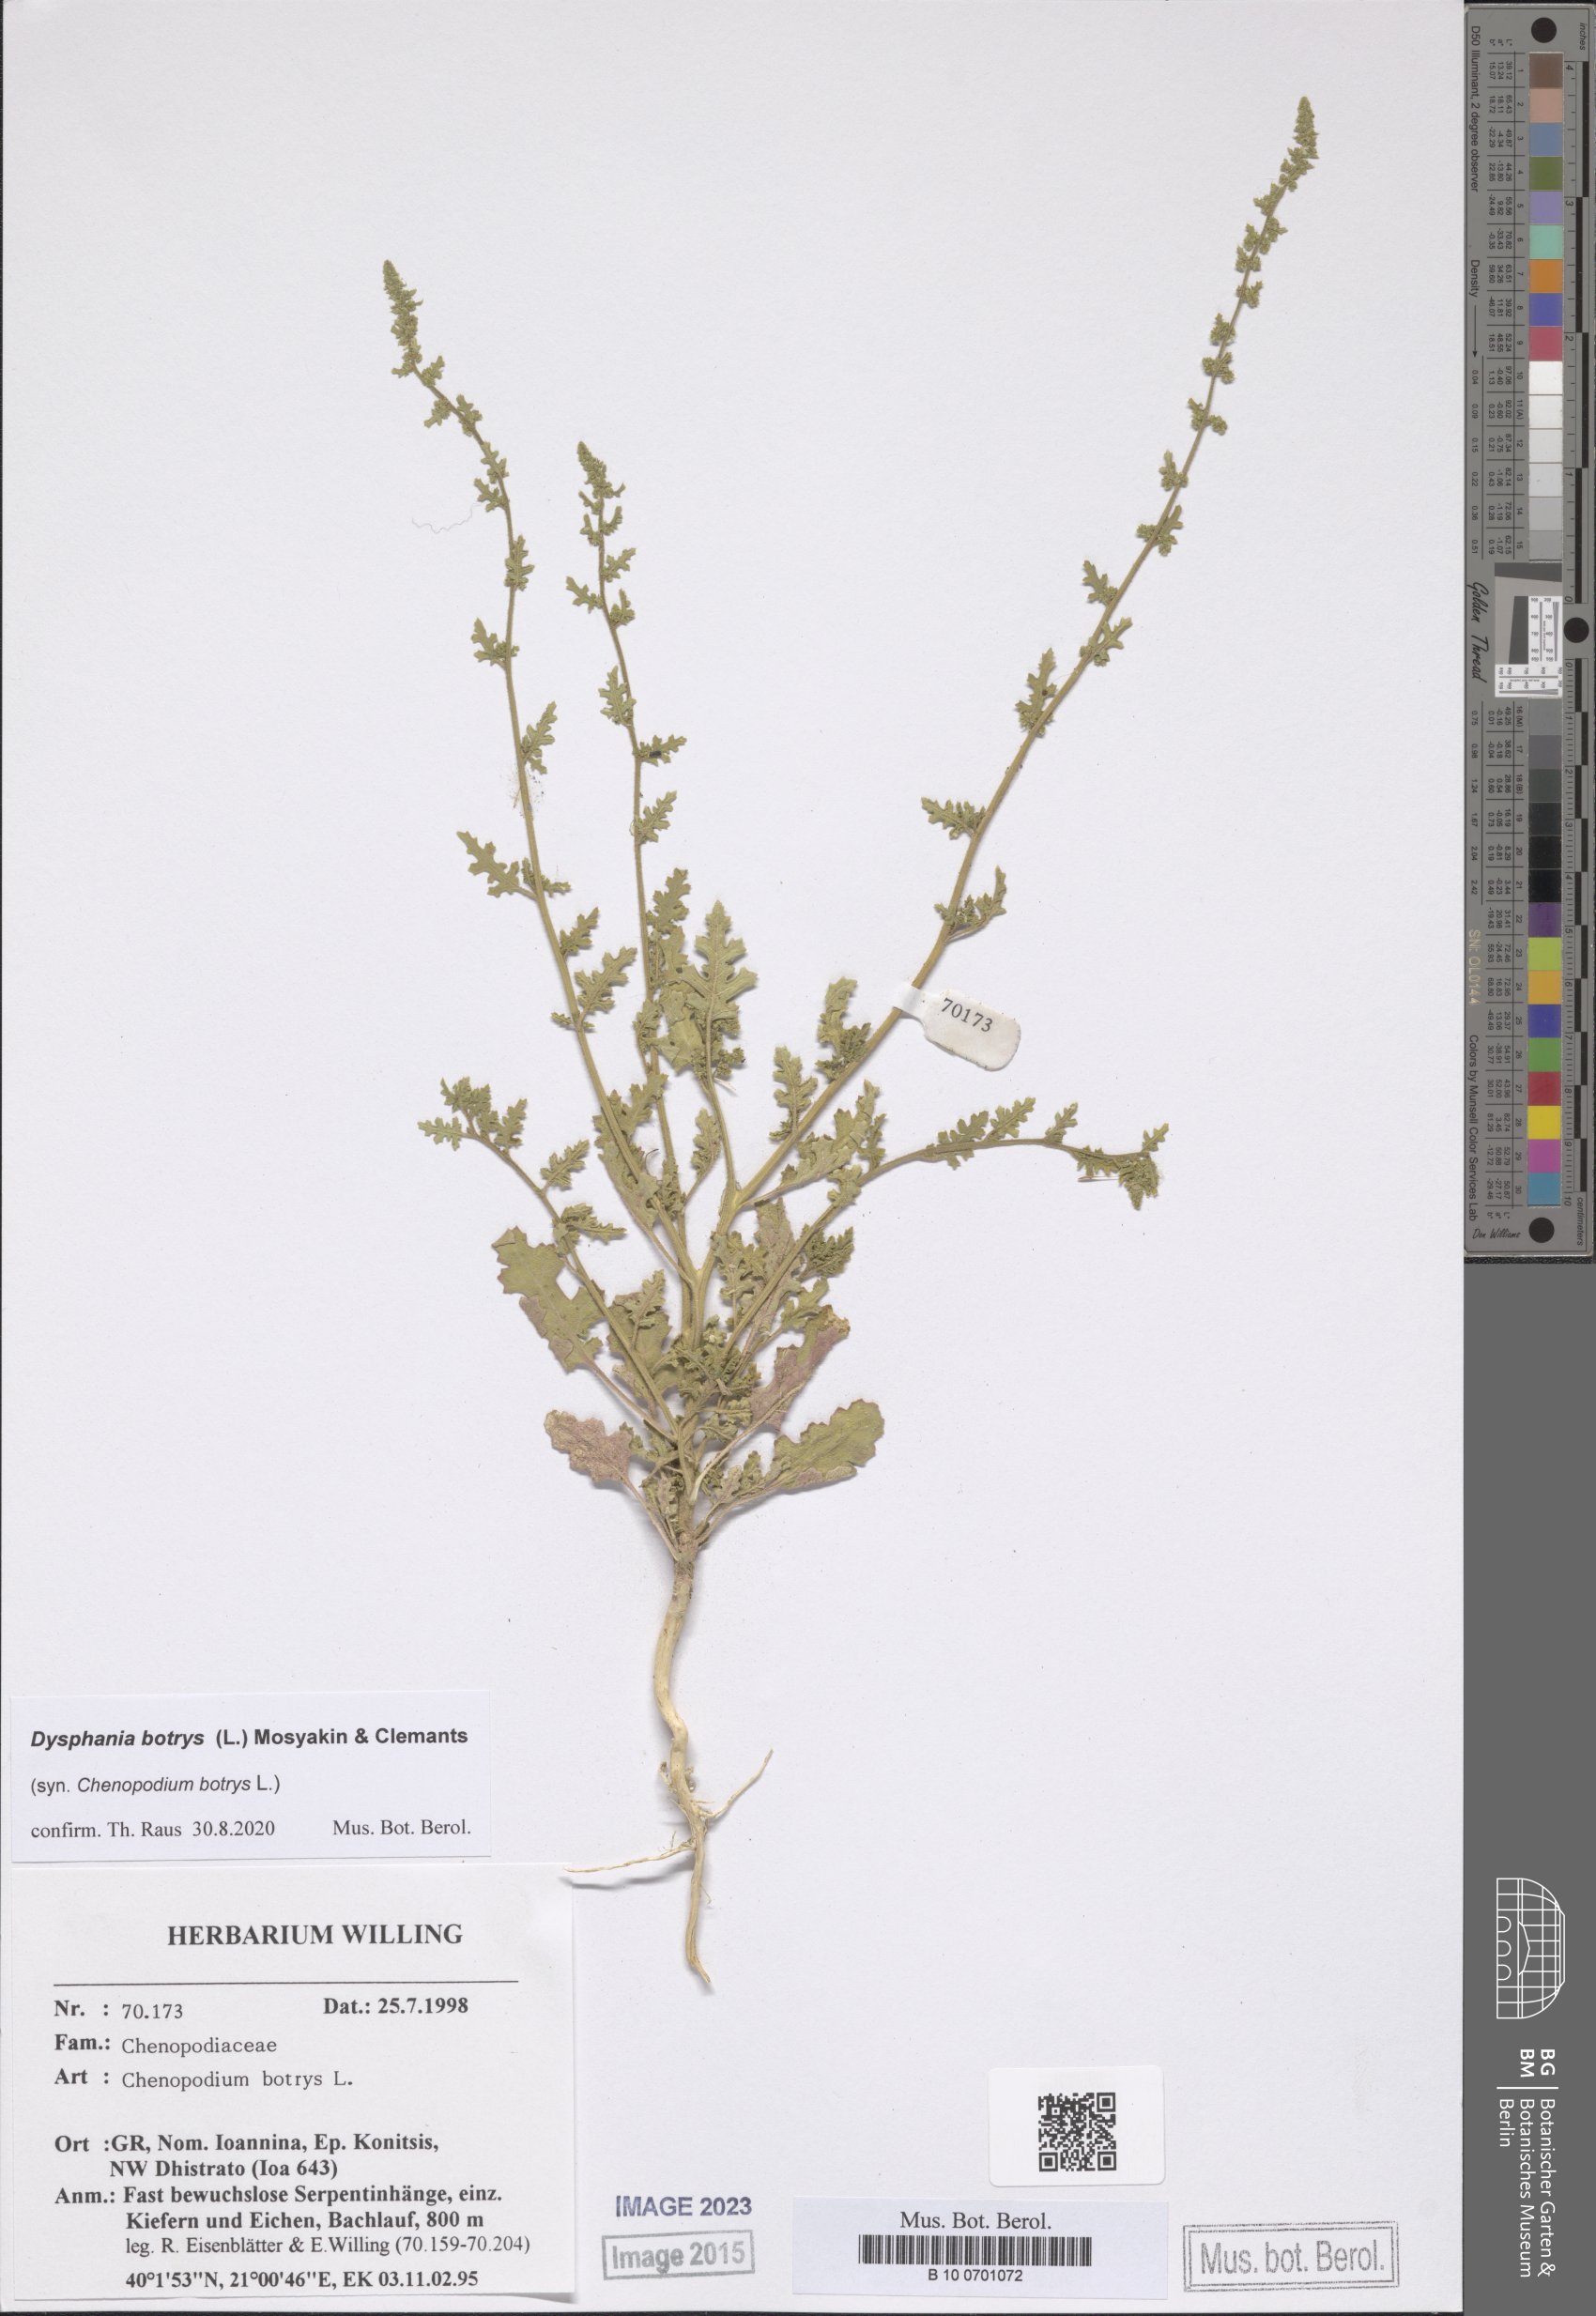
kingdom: Plantae
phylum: Tracheophyta
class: Magnoliopsida
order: Caryophyllales
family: Amaranthaceae
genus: Dysphania
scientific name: Dysphania botrys
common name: Feather-geranium
